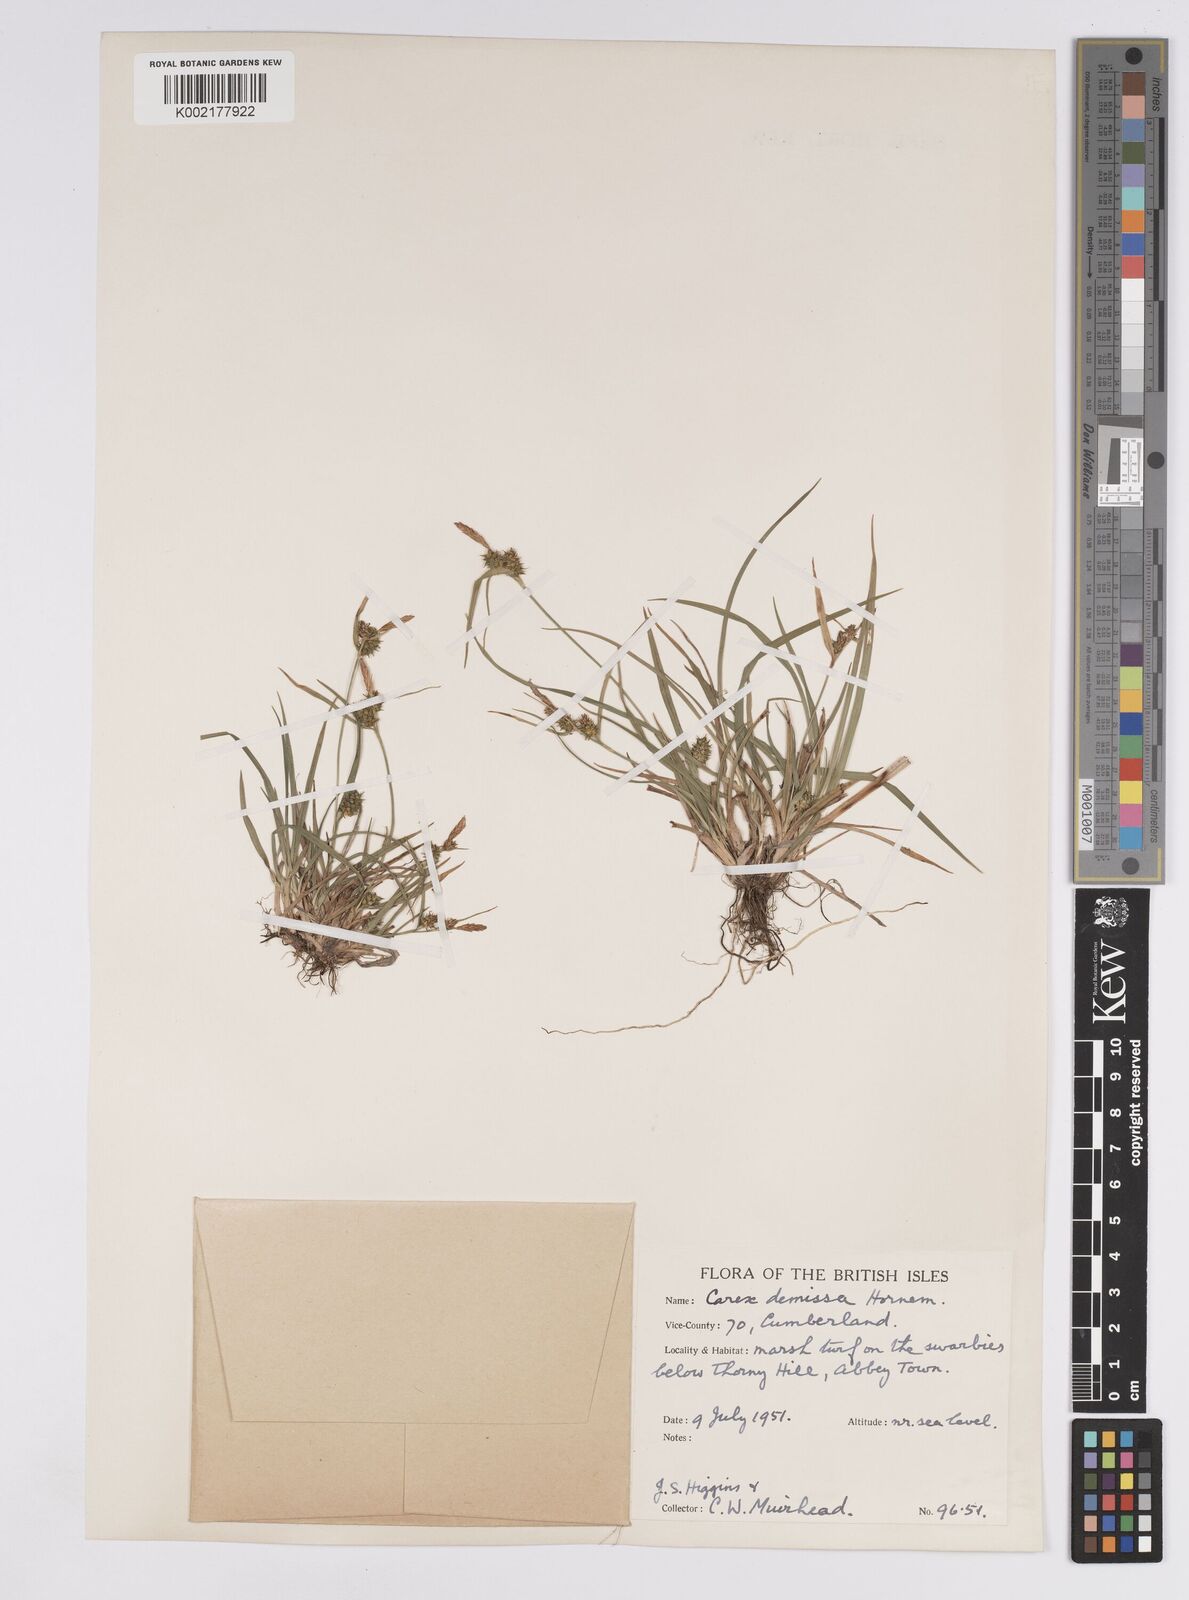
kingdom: Plantae
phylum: Tracheophyta
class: Liliopsida
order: Poales
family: Cyperaceae
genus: Carex
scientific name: Carex demissa
